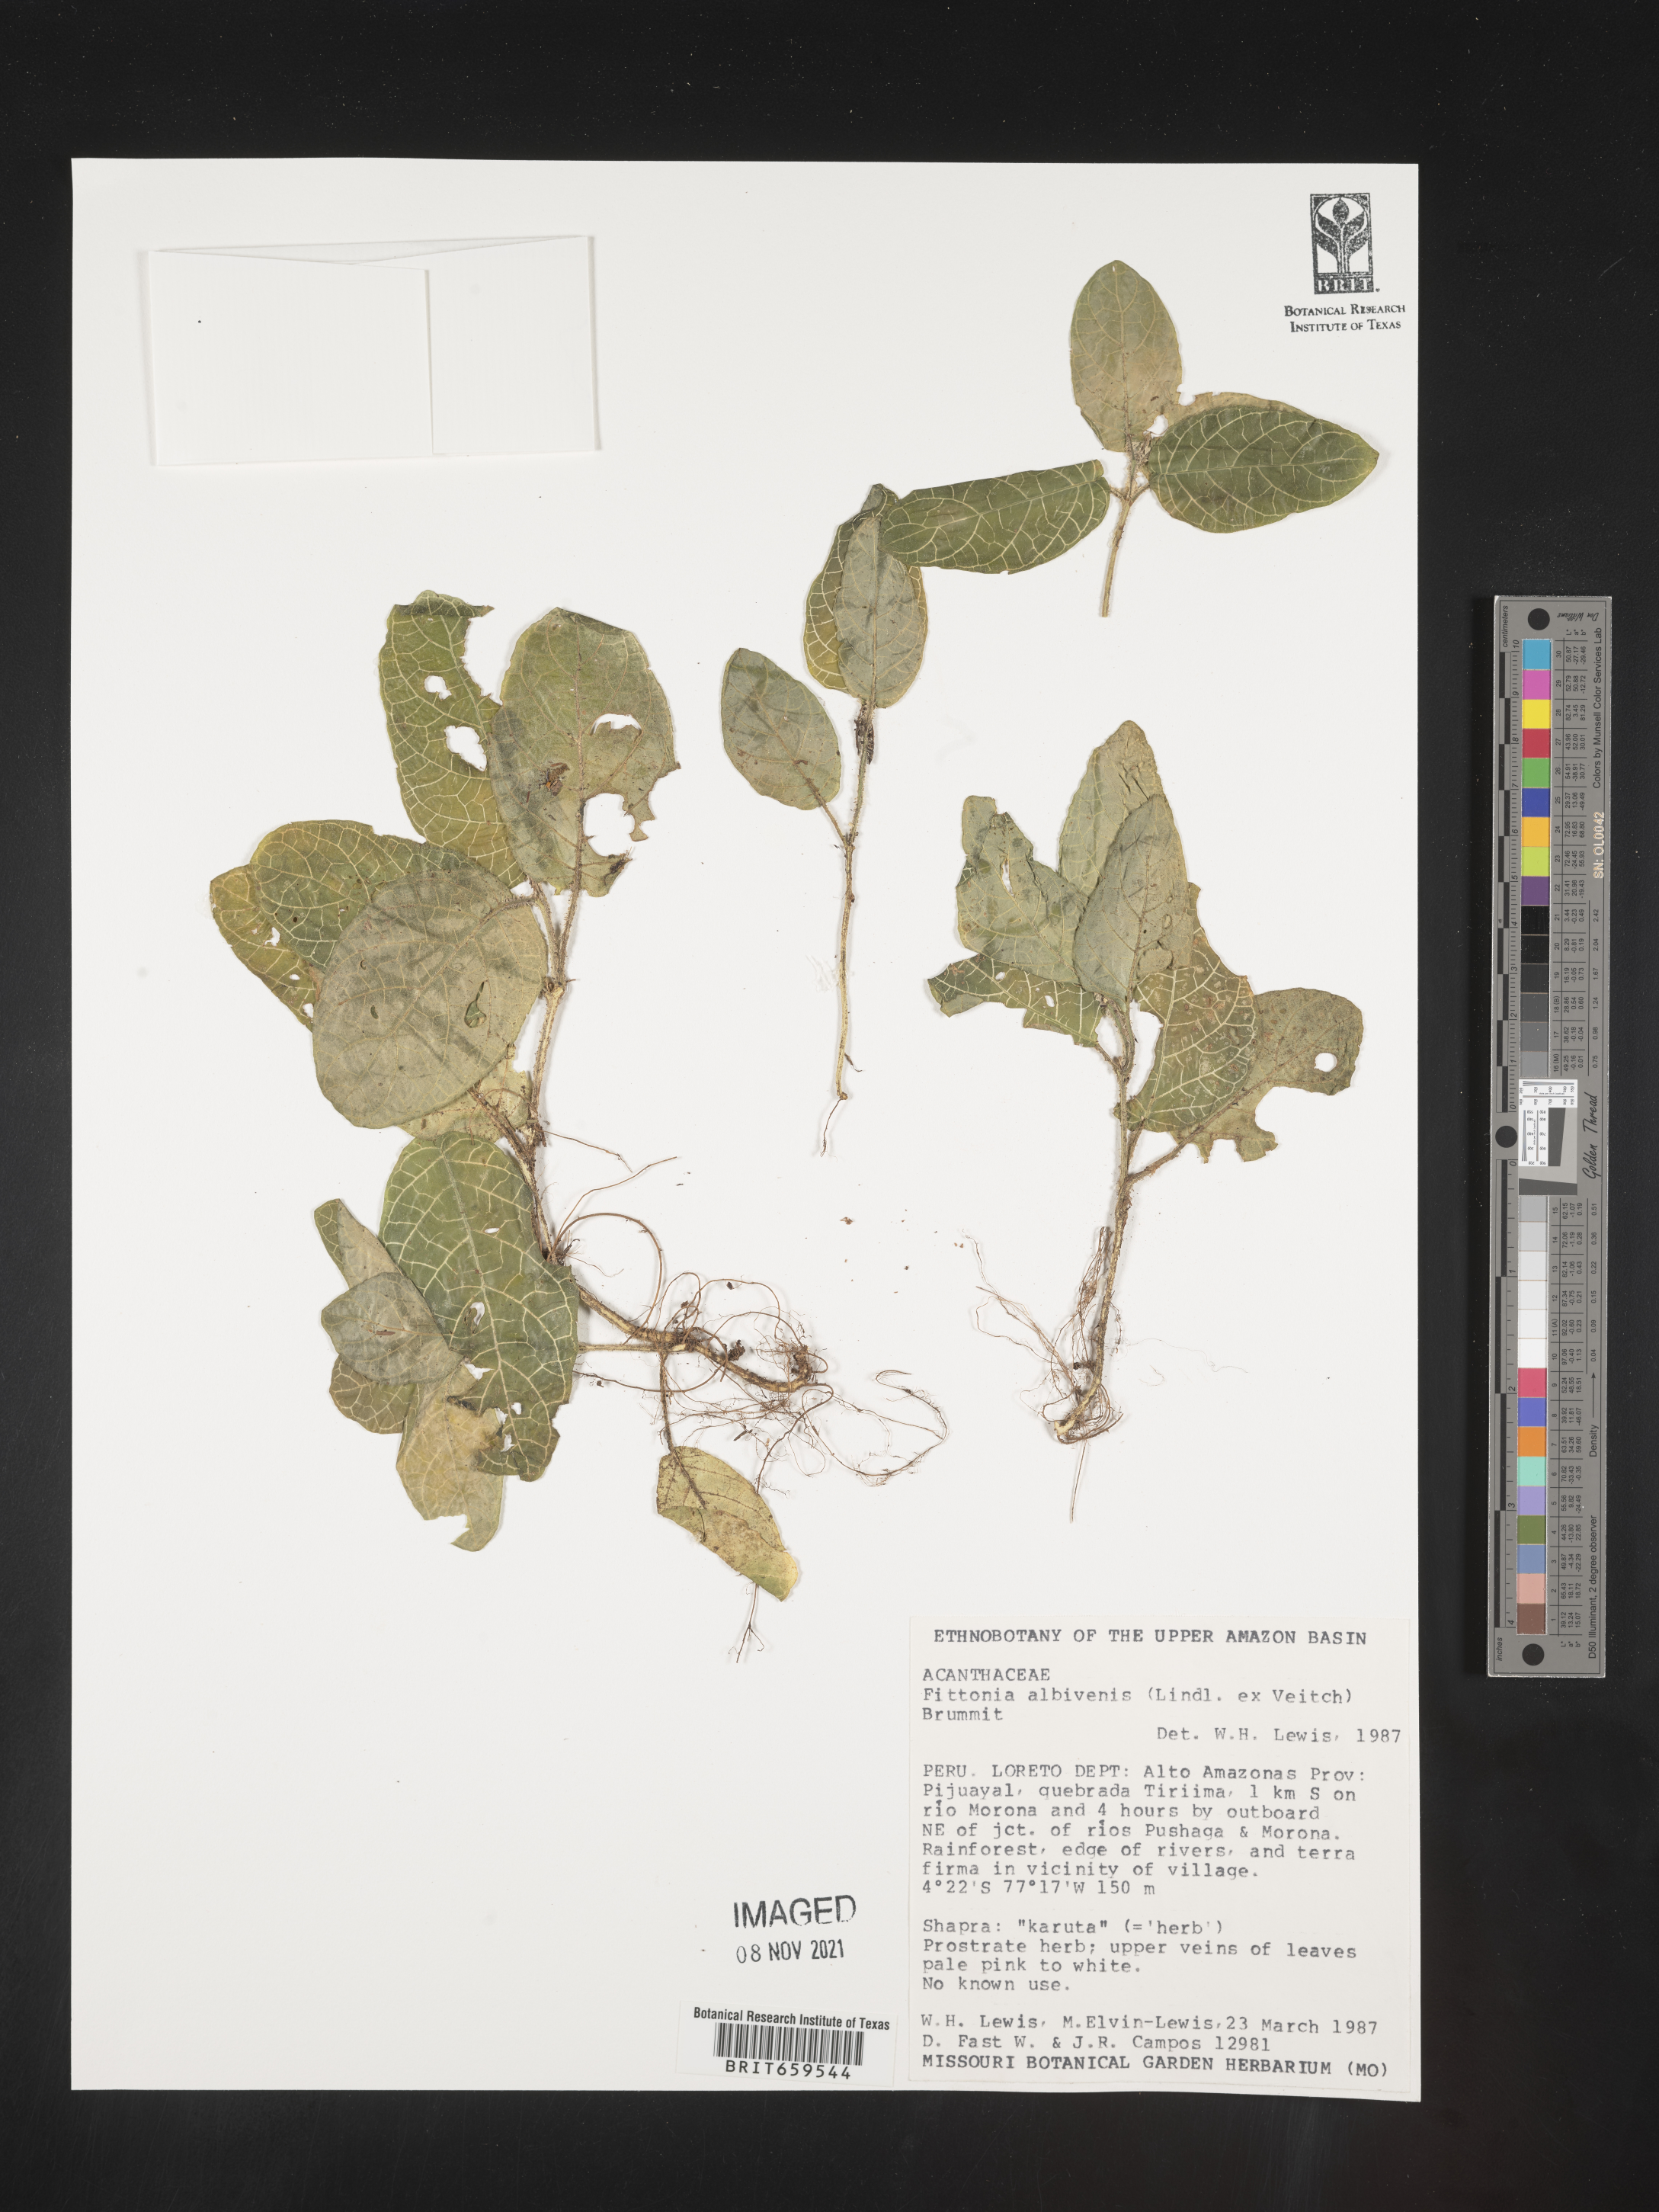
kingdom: Plantae
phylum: Tracheophyta
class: Magnoliopsida
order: Lamiales
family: Acanthaceae
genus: Fittonia
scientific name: Fittonia
